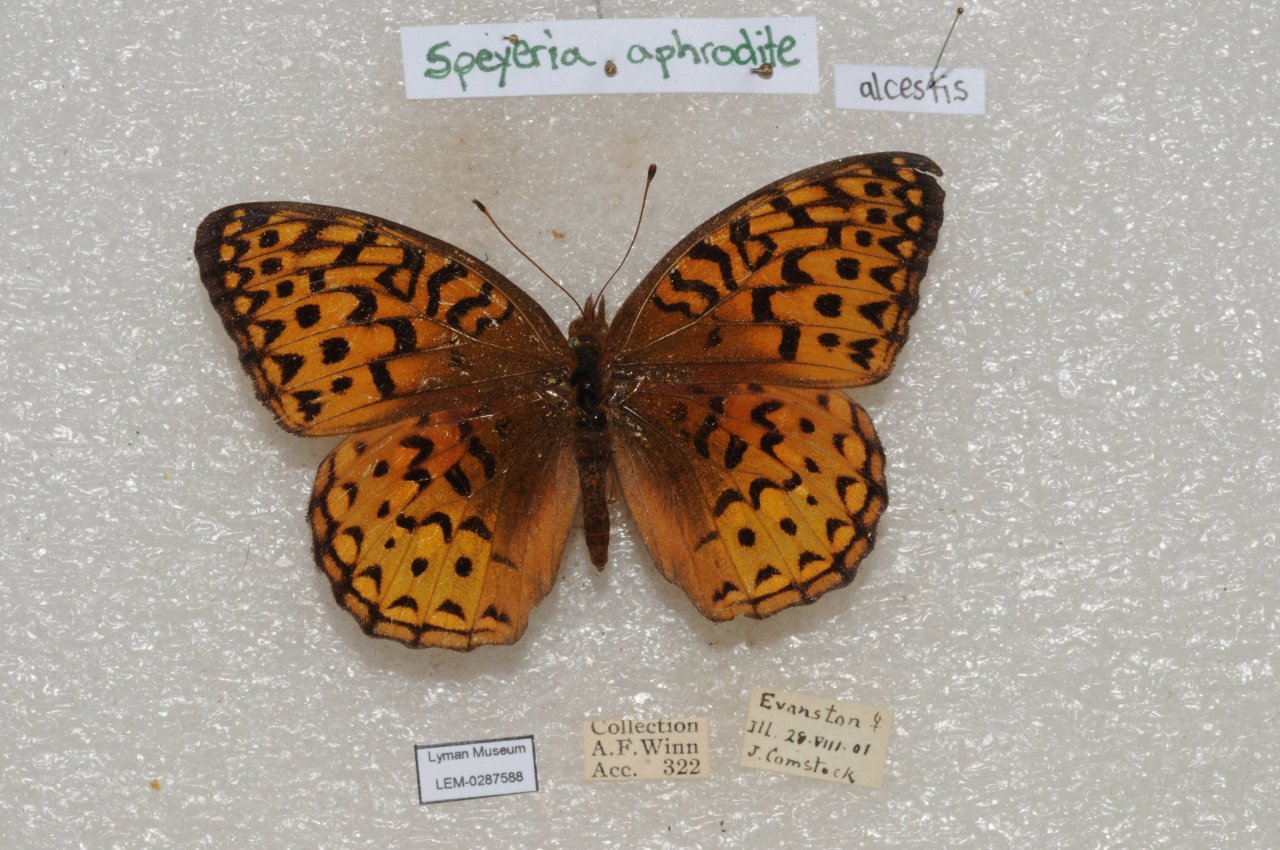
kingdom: Animalia
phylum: Arthropoda
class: Insecta
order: Lepidoptera
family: Nymphalidae
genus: Speyeria
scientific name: Speyeria aphrodite
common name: Aphrodite Fritillary
